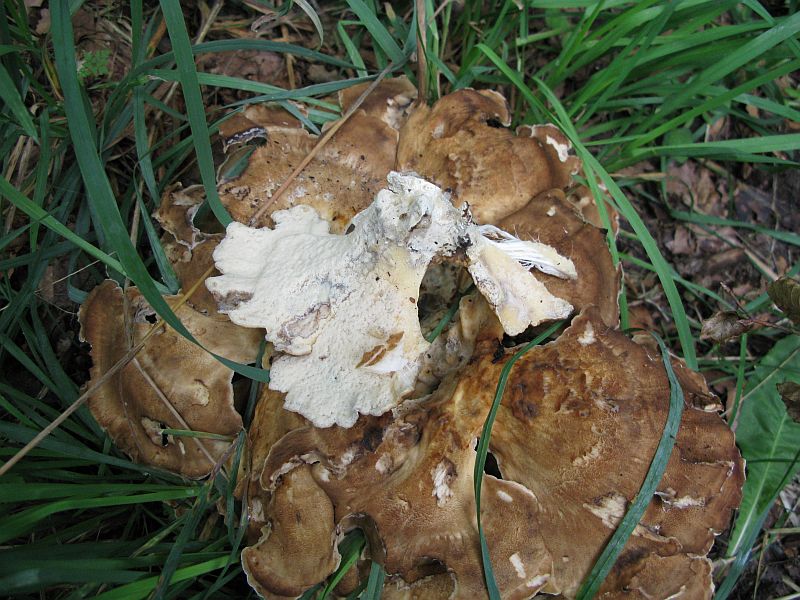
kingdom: Fungi
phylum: Basidiomycota
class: Agaricomycetes
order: Polyporales
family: Meripilaceae
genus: Meripilus
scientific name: Meripilus giganteus
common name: kæmpeporesvamp
